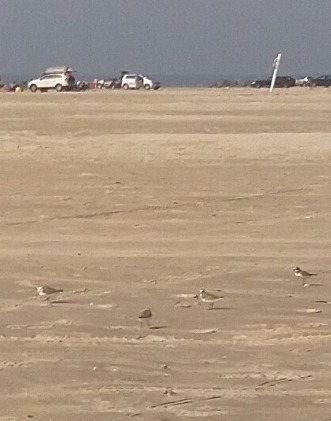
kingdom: Animalia
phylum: Chordata
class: Aves
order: Charadriiformes
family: Charadriidae
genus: Charadrius
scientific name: Charadrius alexandrinus
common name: Hvidbrystet præstekrave
